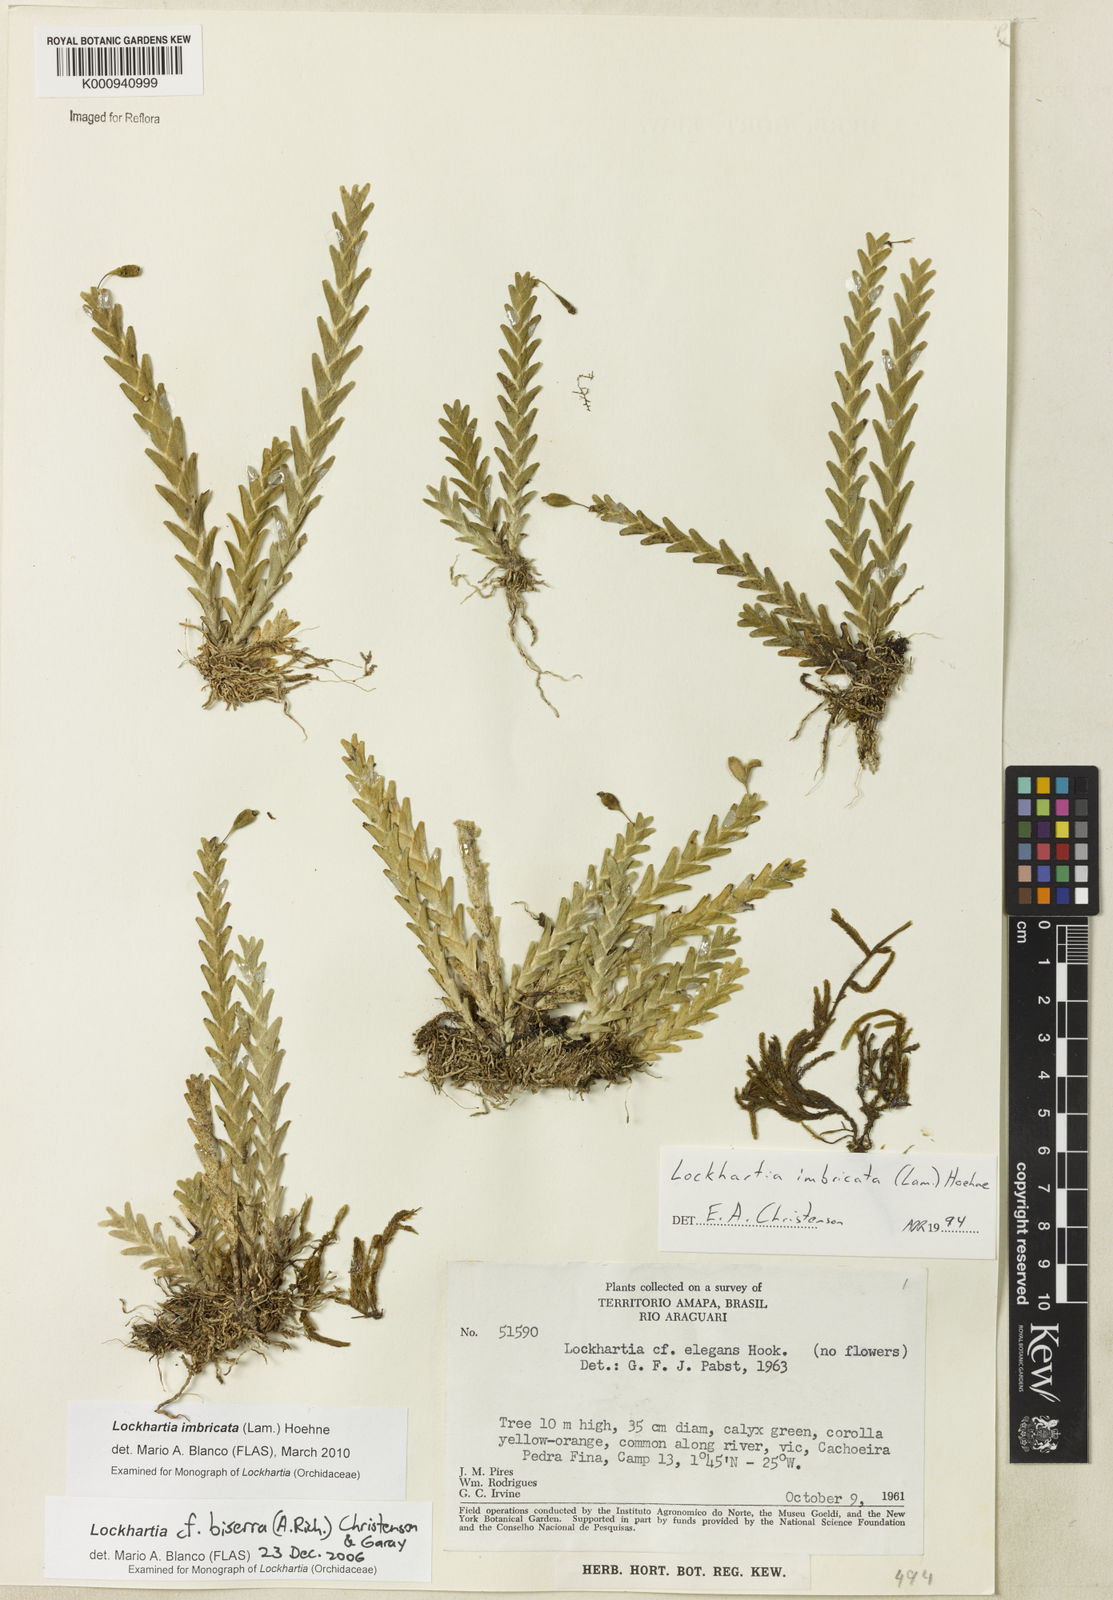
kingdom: Plantae
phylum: Tracheophyta
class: Liliopsida
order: Asparagales
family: Orchidaceae
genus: Lockhartia
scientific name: Lockhartia imbricata
